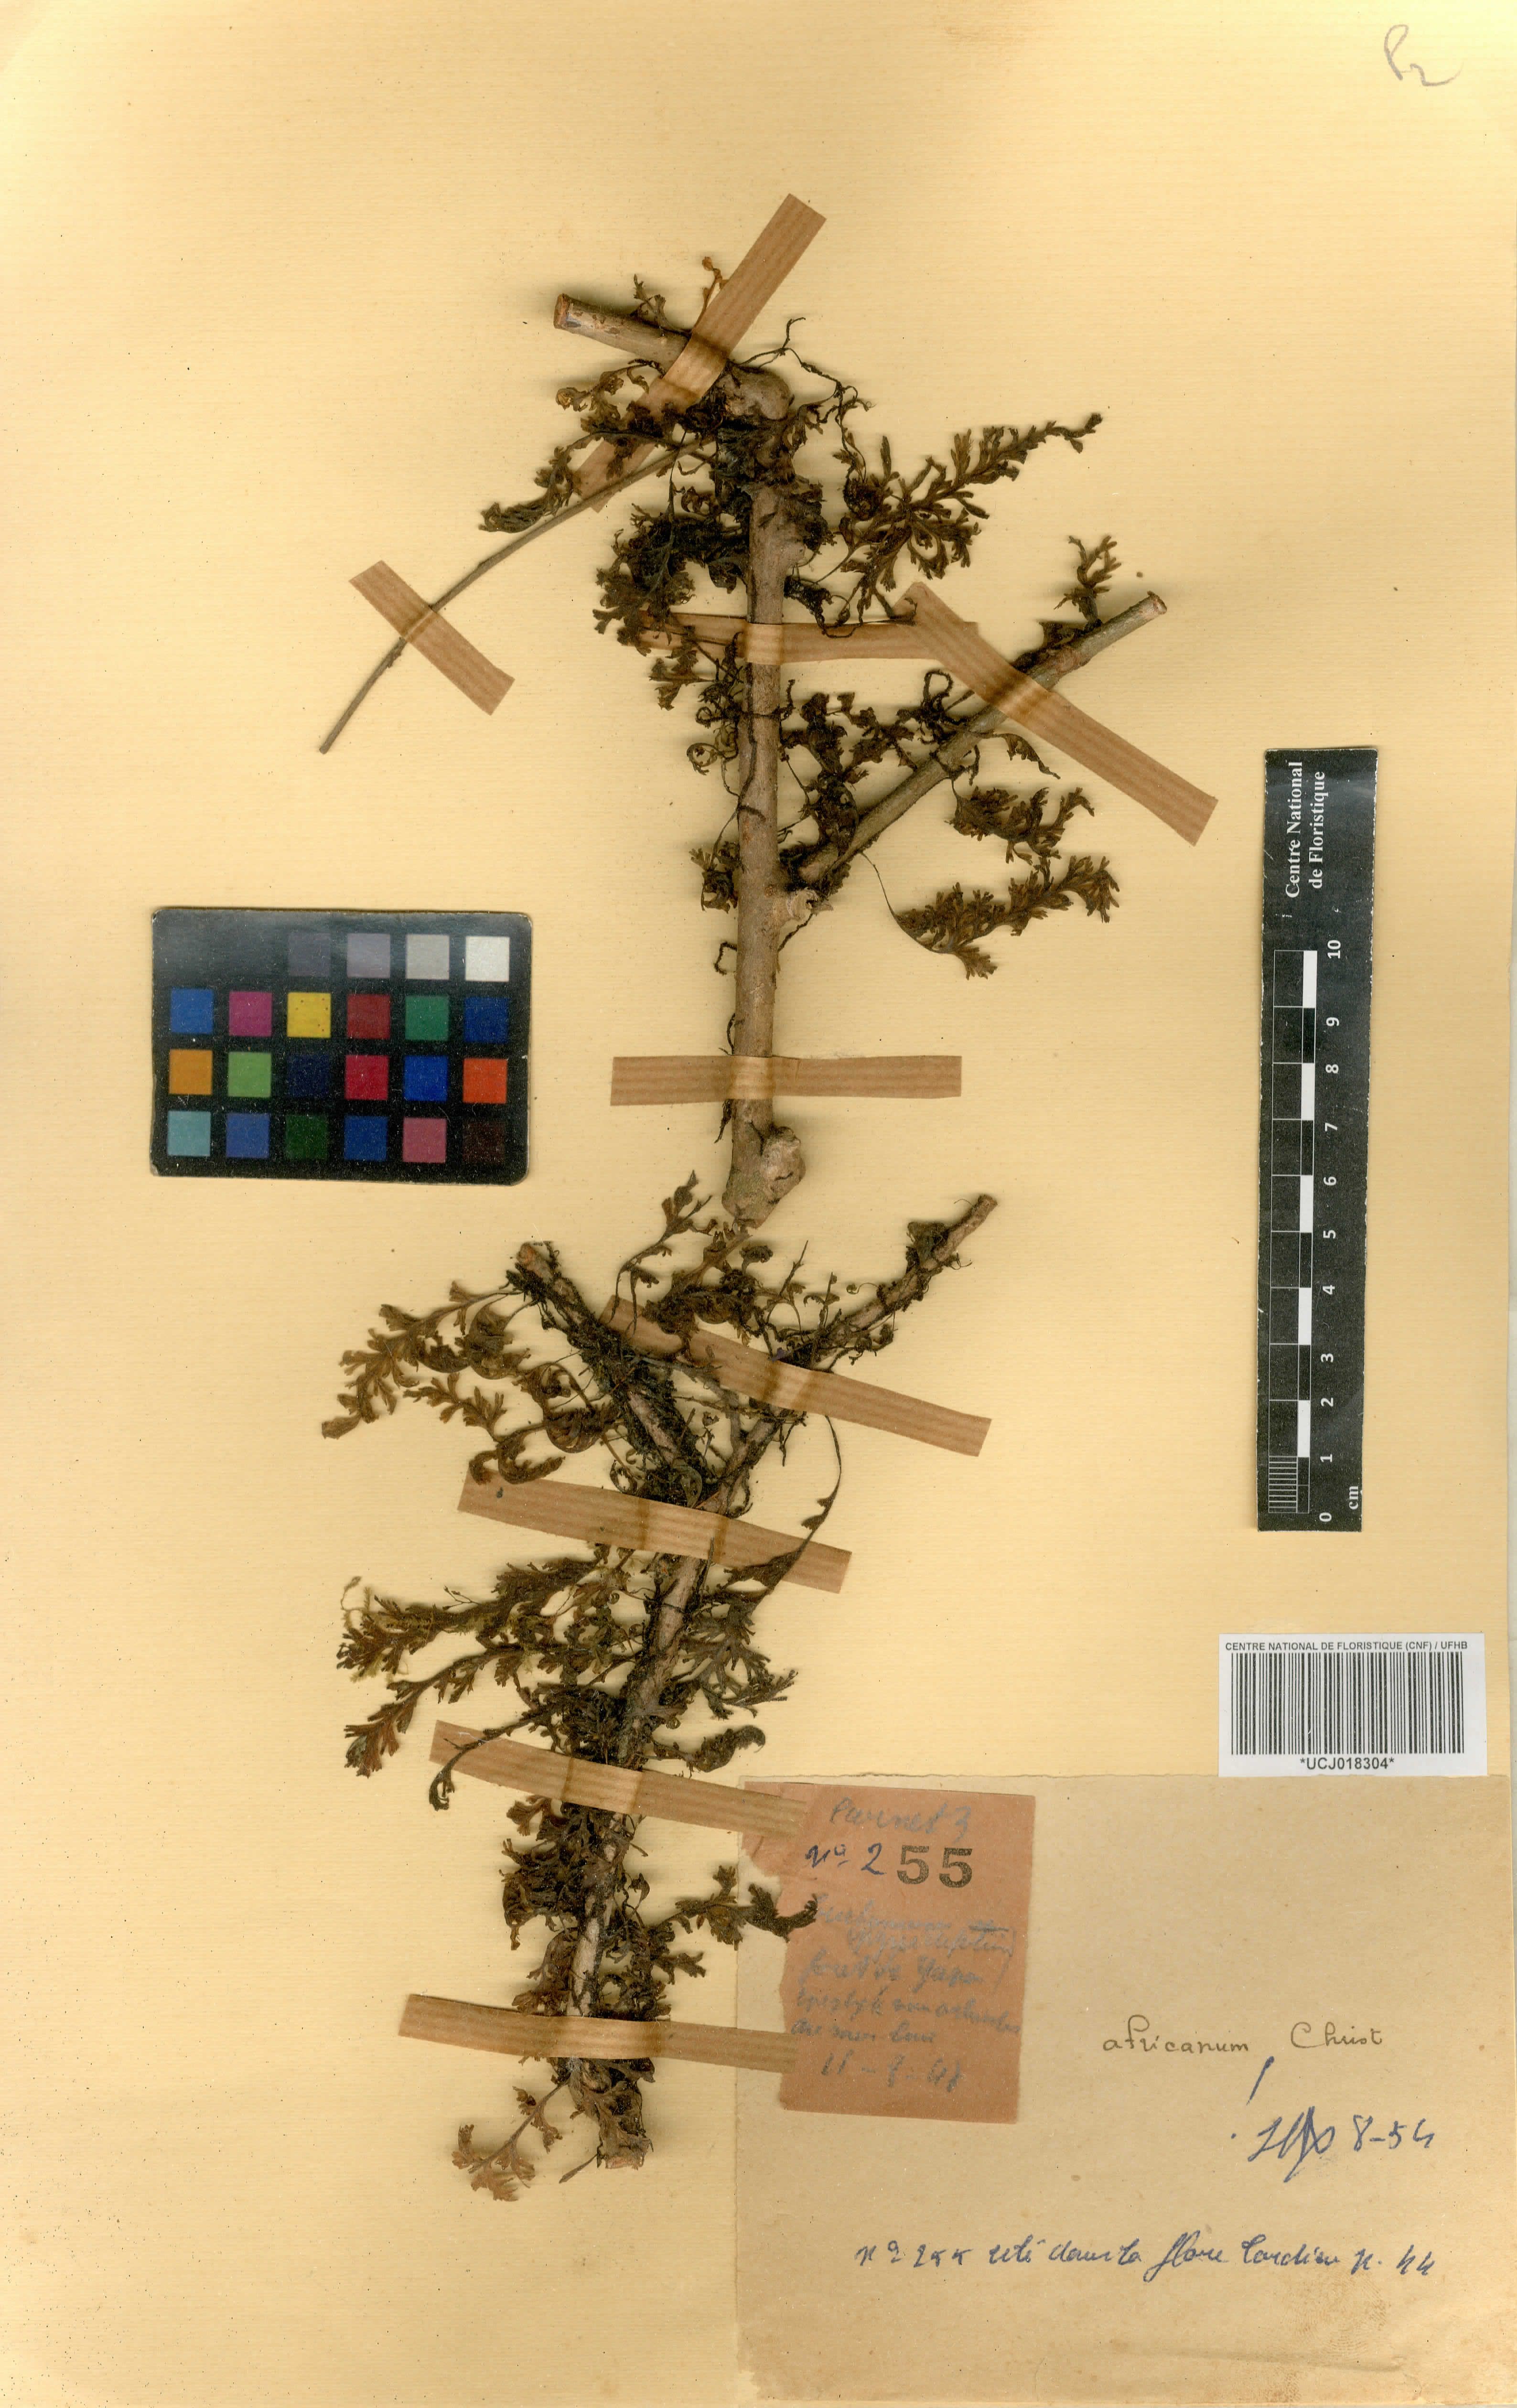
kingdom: Plantae
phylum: Tracheophyta
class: Polypodiopsida
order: Hymenophyllales
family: Hymenophyllaceae
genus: Crepidomanes
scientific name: Crepidomanes africanum
